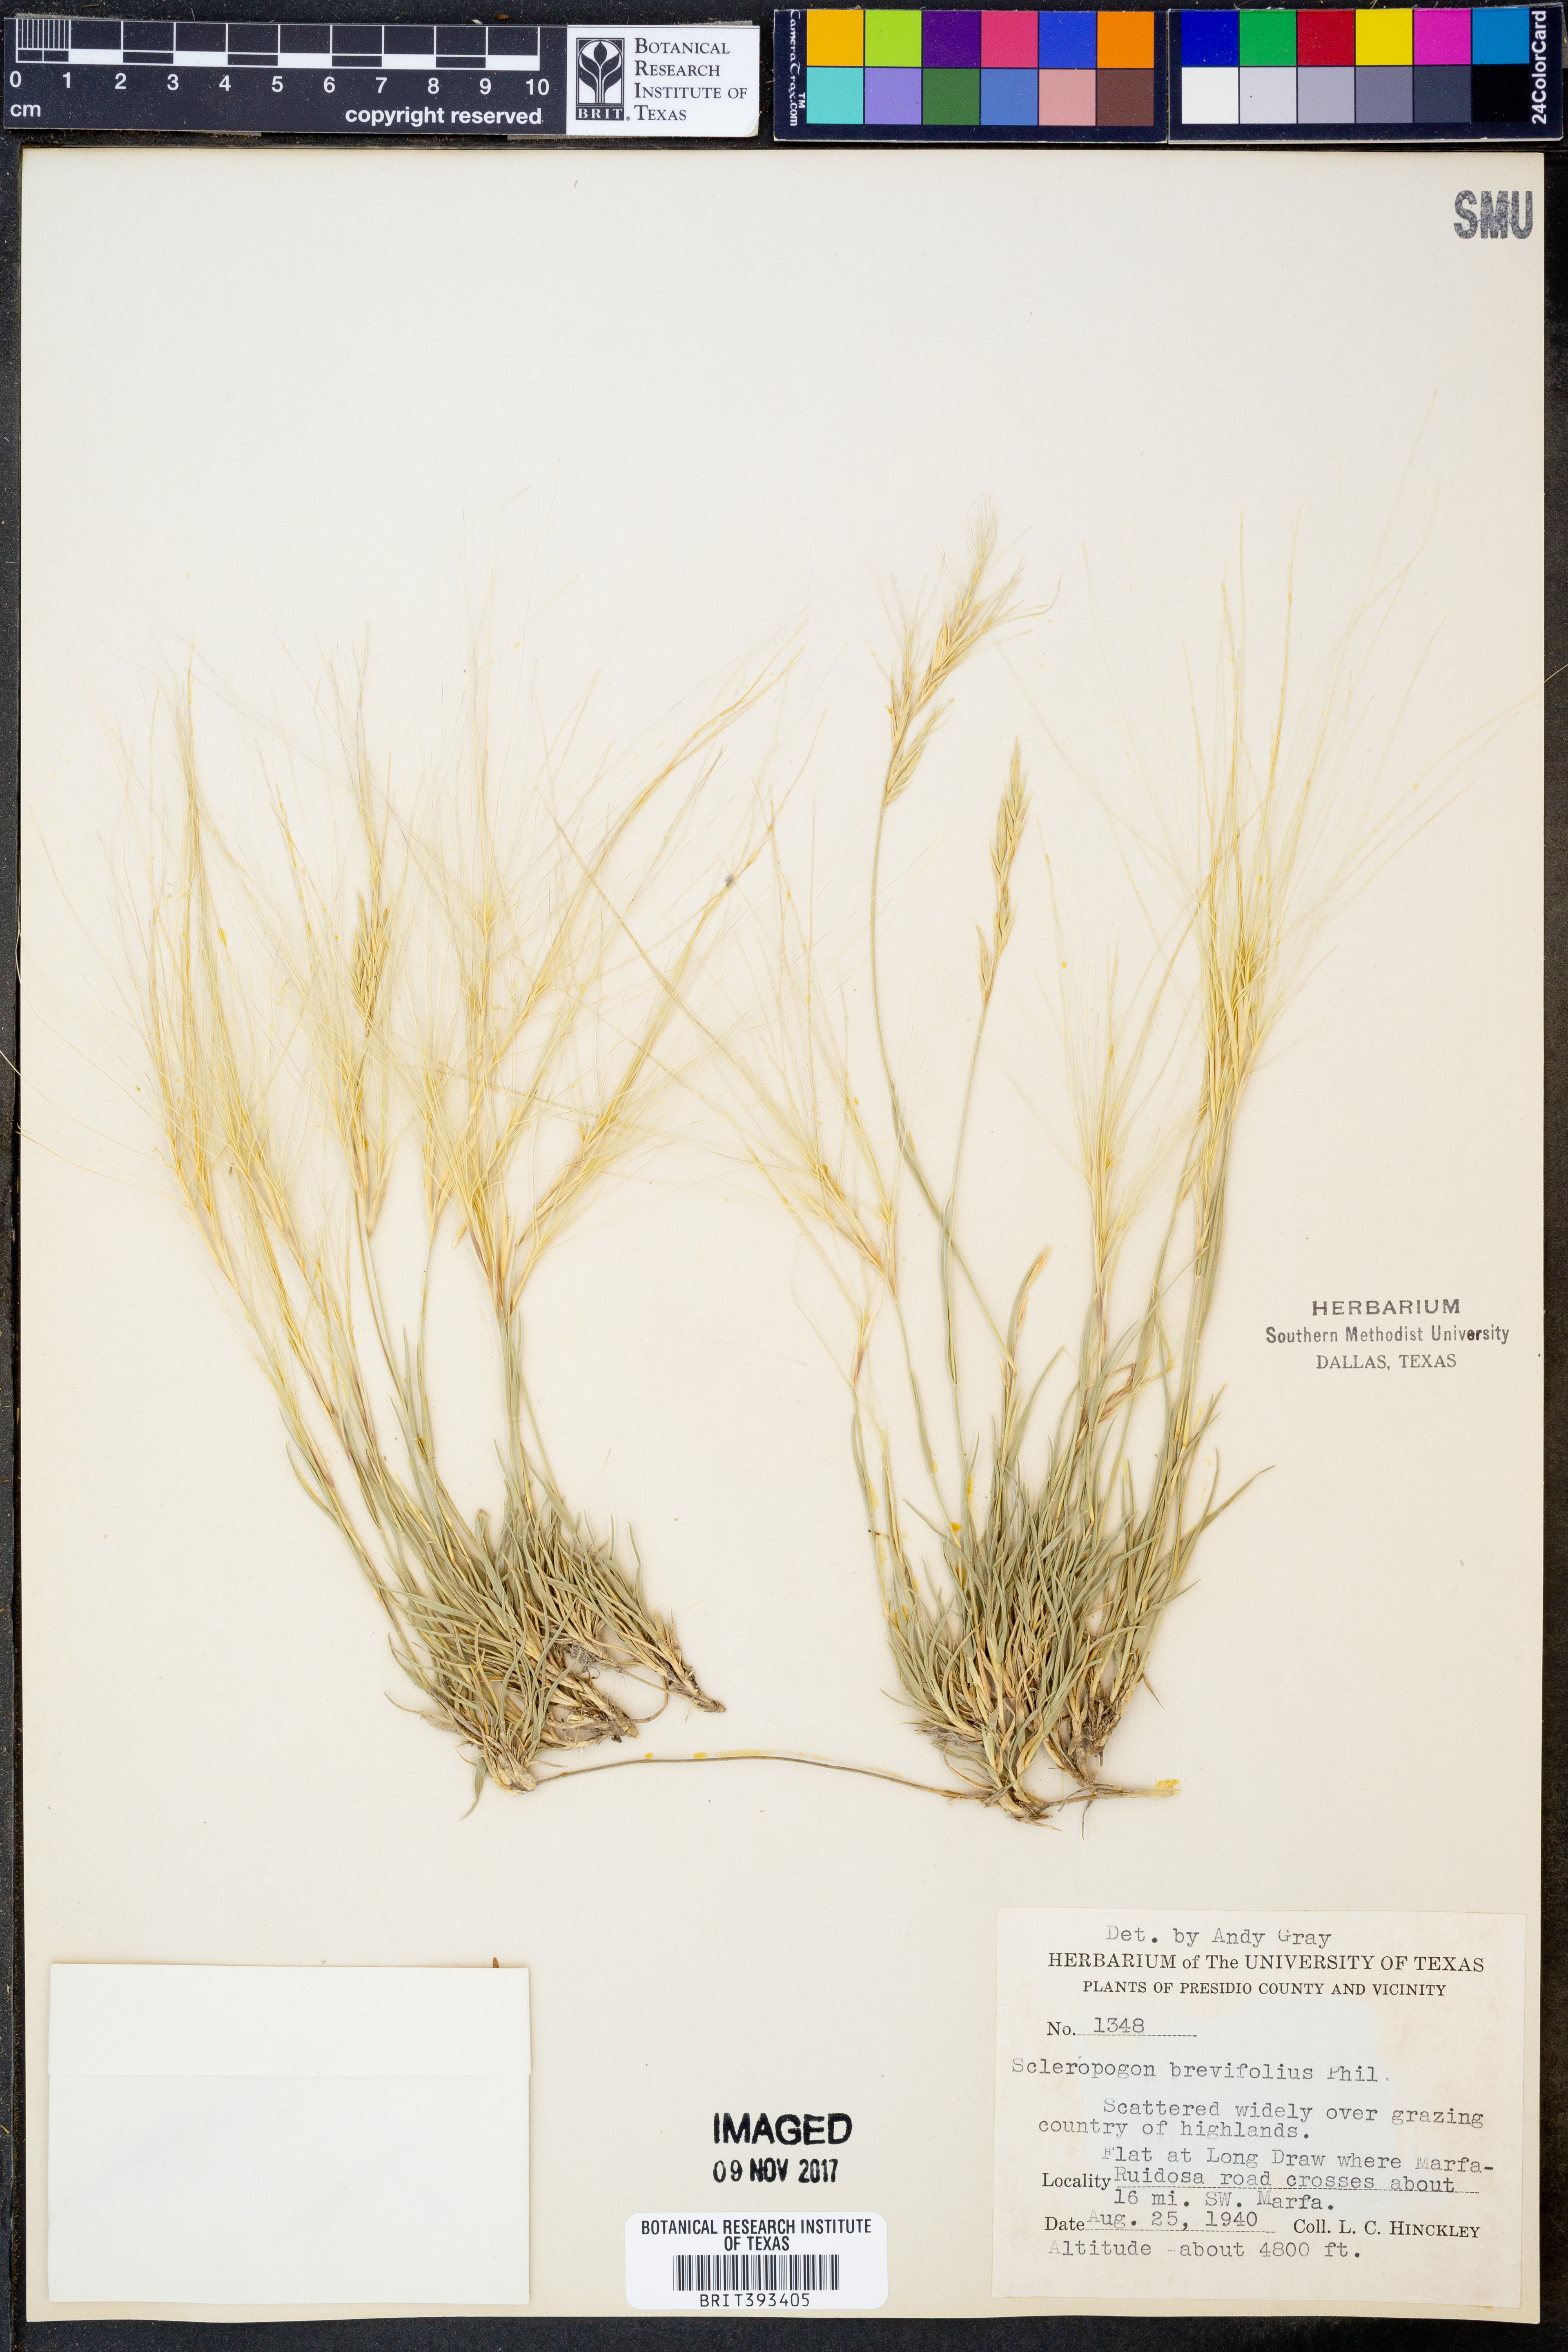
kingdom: Plantae
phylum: Tracheophyta
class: Liliopsida
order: Poales
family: Poaceae
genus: Scleropogon
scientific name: Scleropogon brevifolius
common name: Burro grass
